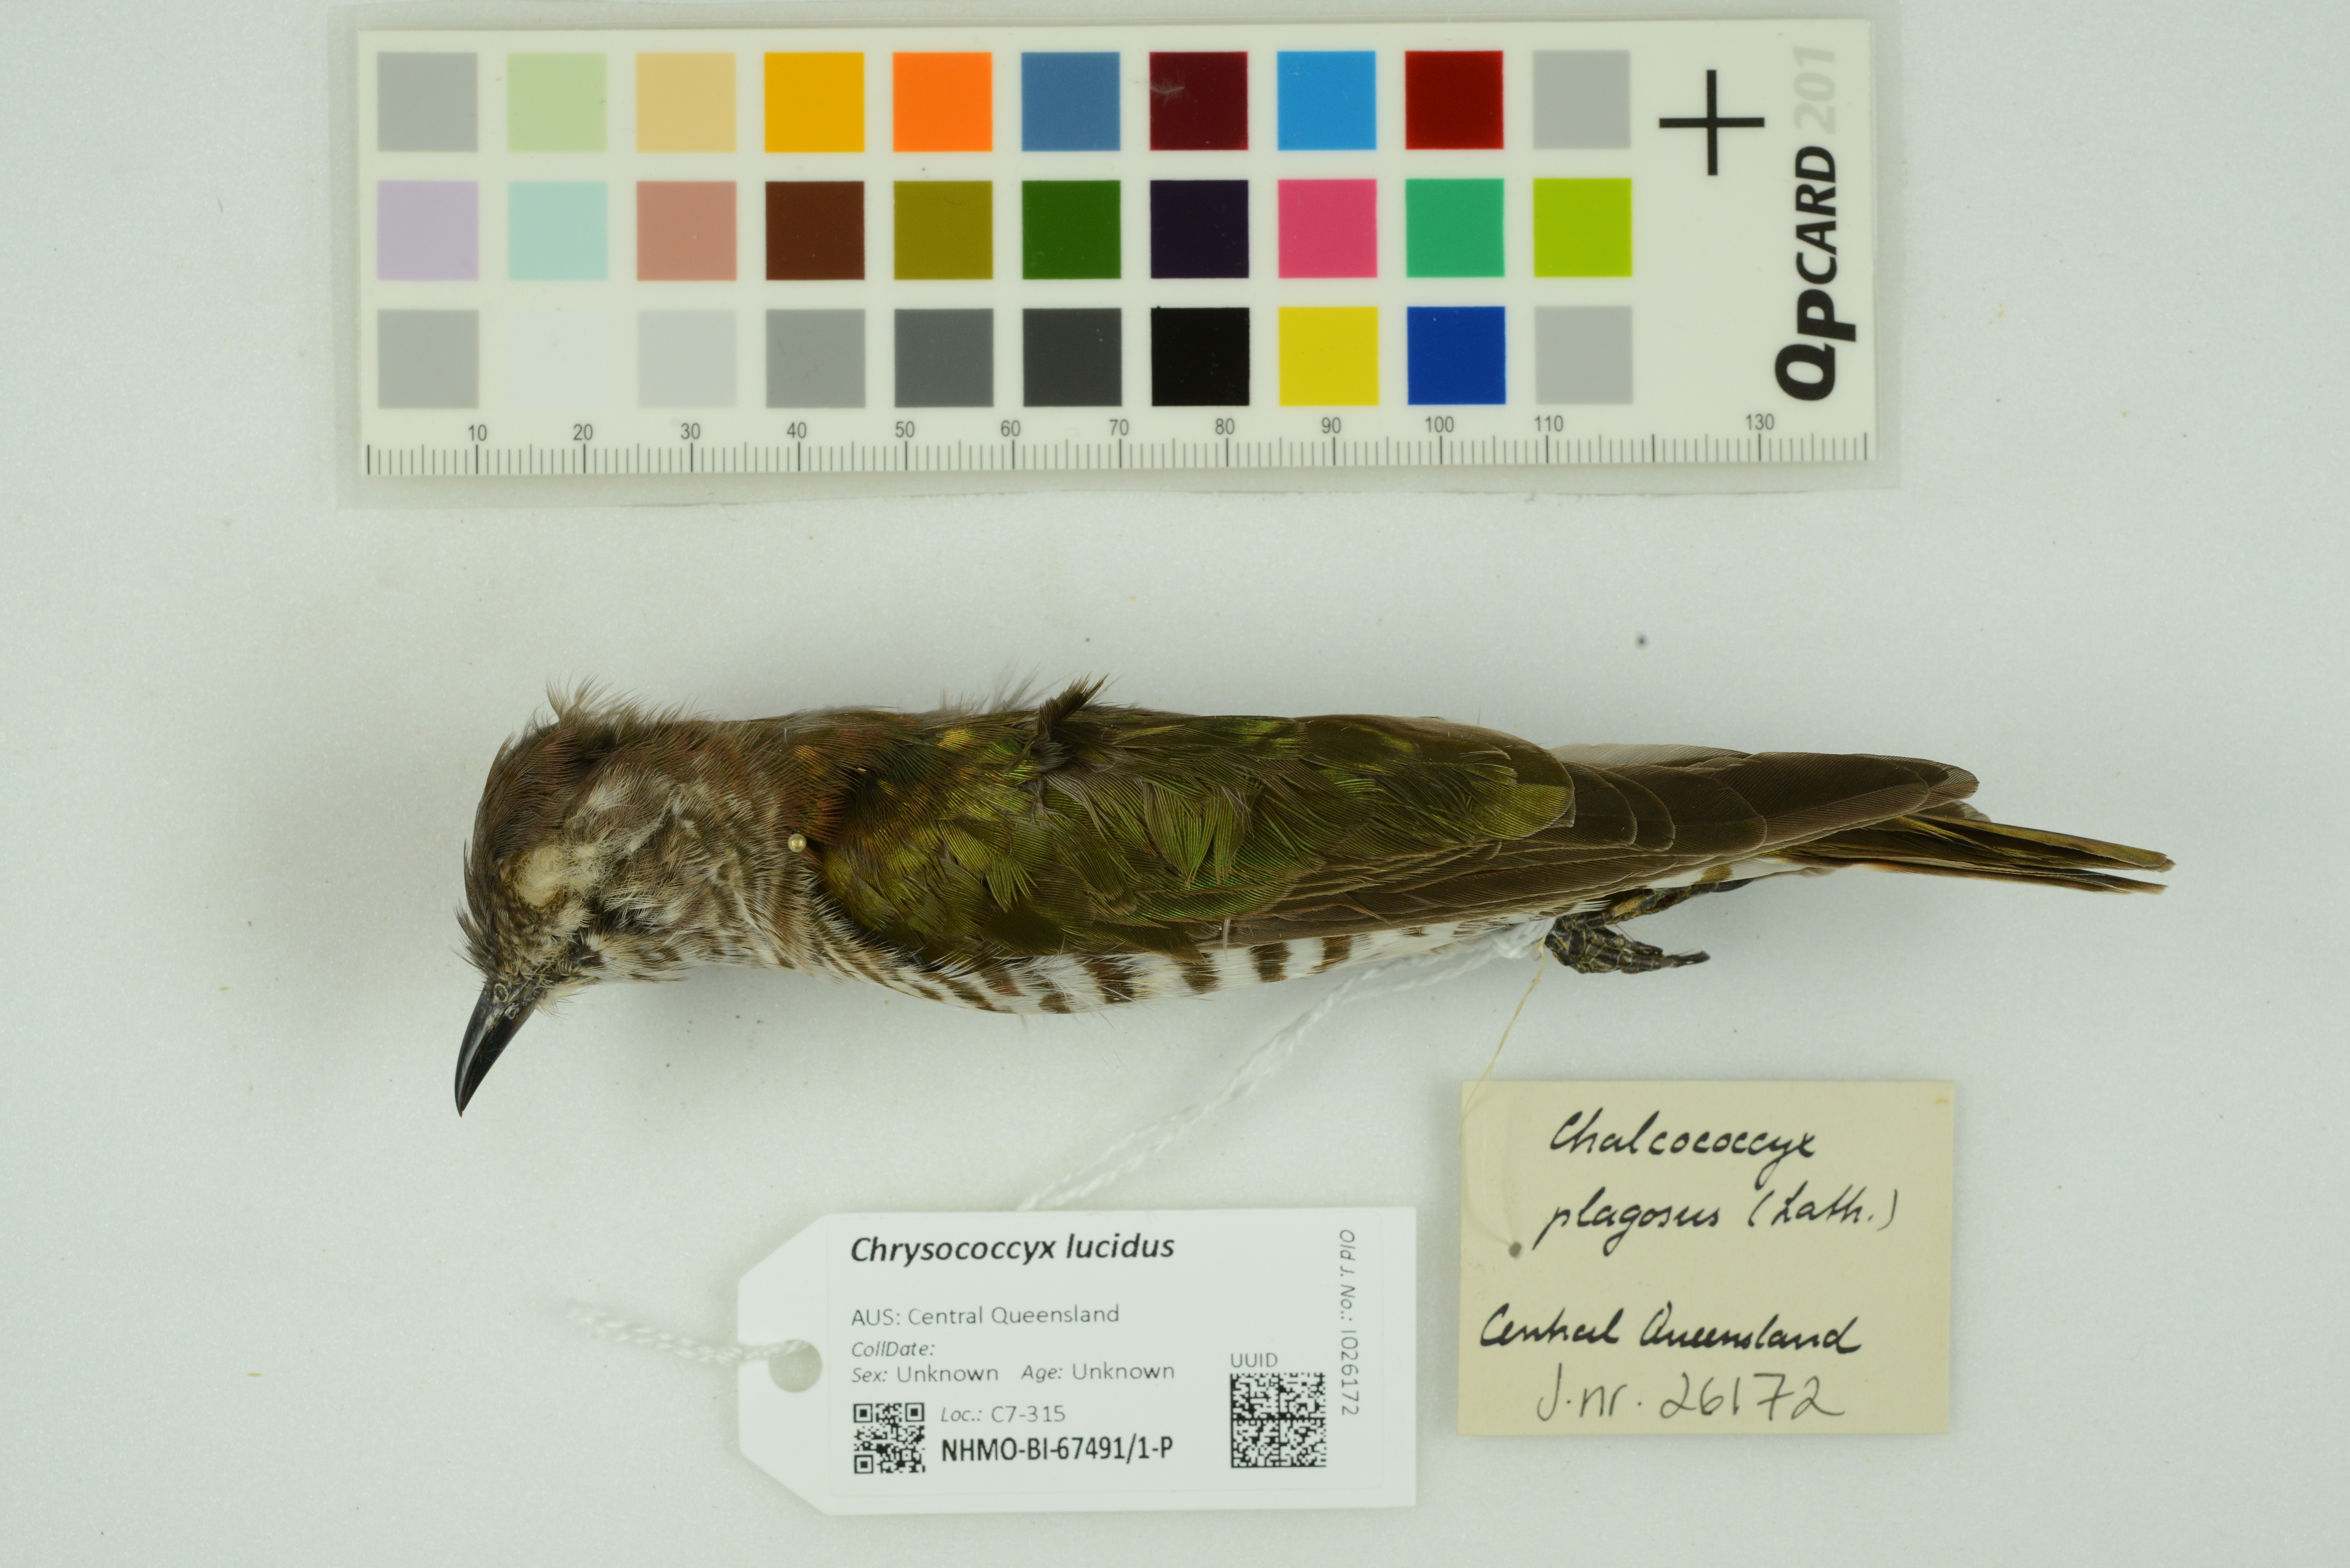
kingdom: Animalia
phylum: Chordata
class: Aves
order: Cuculiformes
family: Cuculidae
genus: Chrysococcyx
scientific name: Chrysococcyx lucidus
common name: Shining bronze cuckoo
